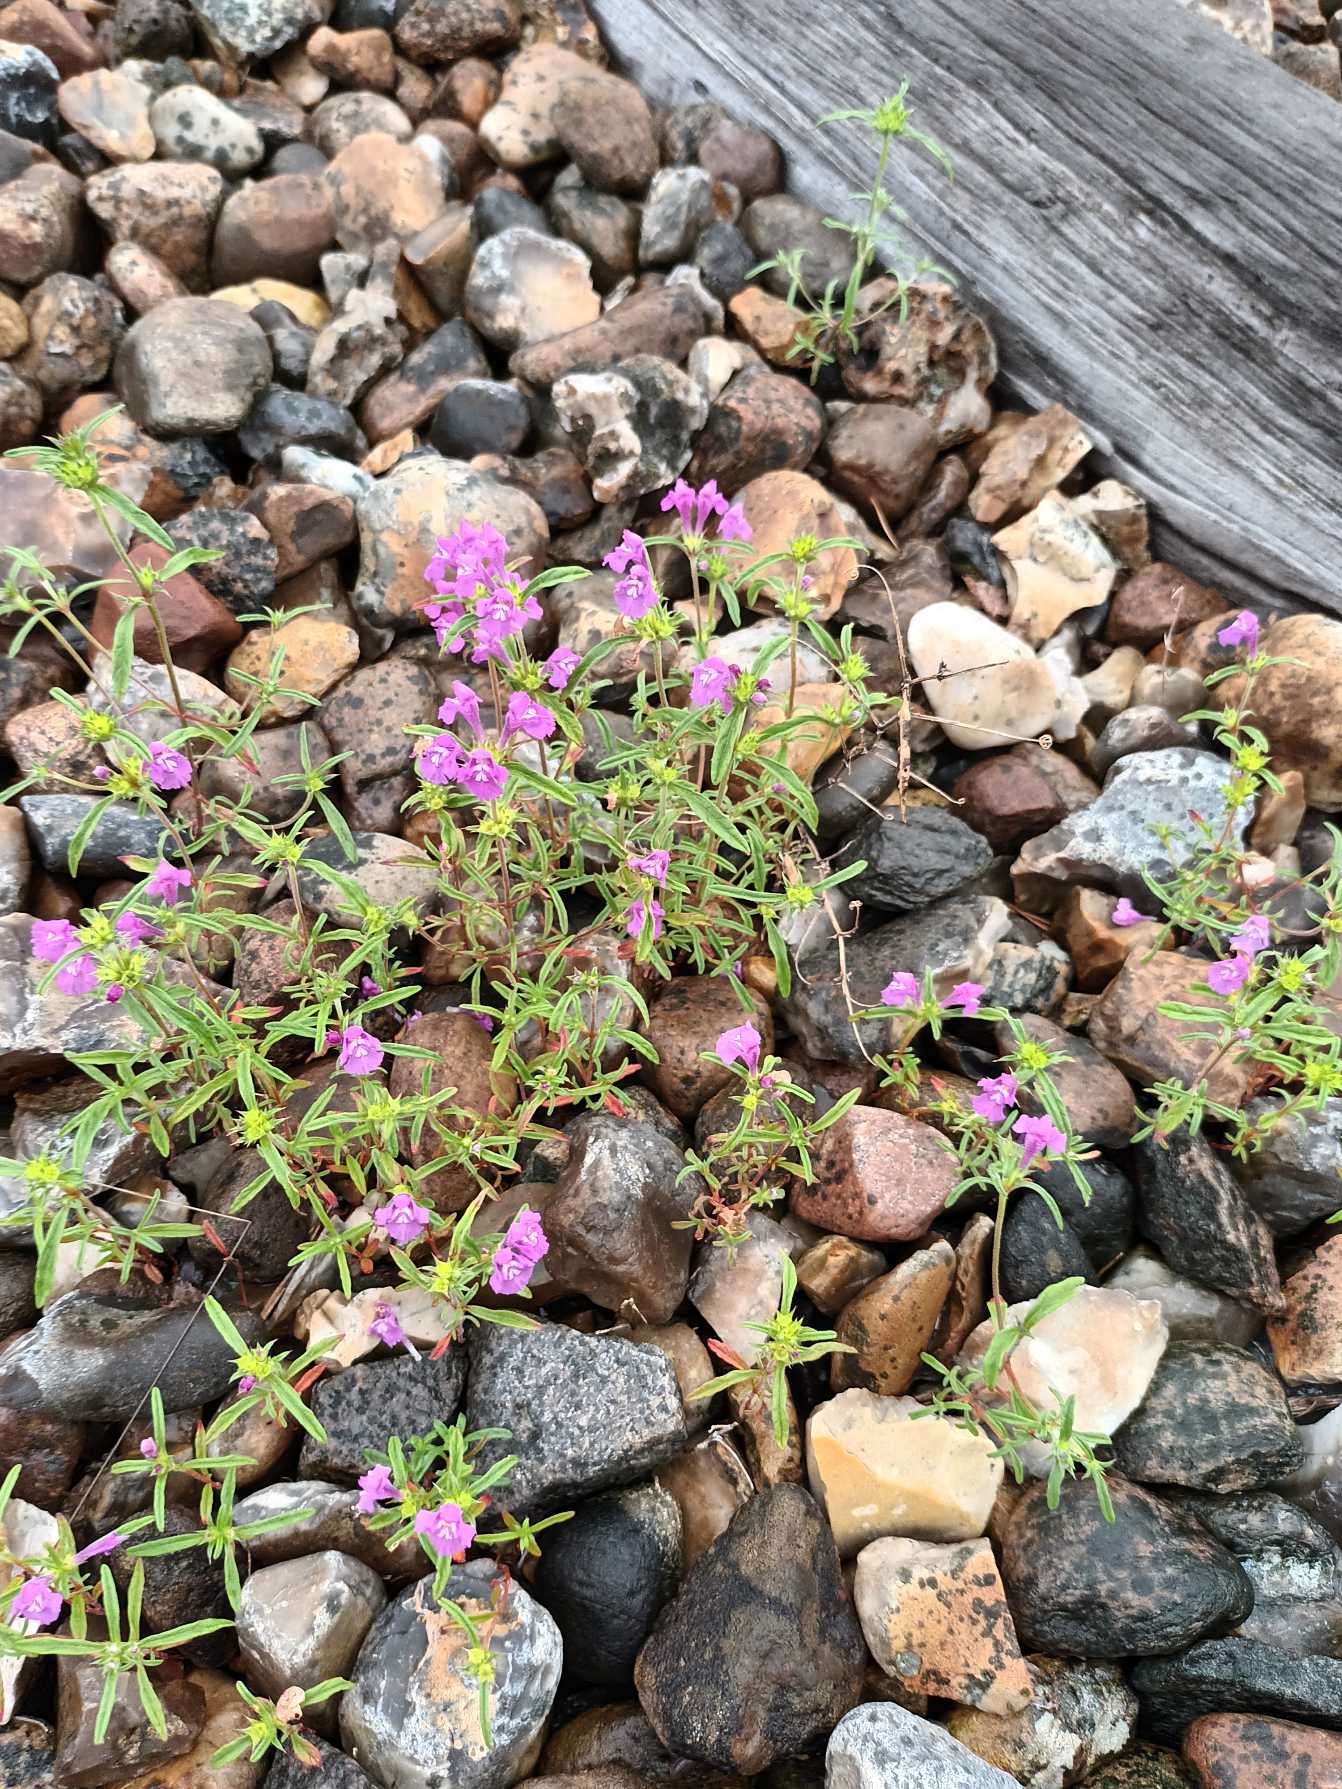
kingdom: Plantae
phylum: Tracheophyta
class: Magnoliopsida
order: Lamiales
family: Lamiaceae
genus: Galeopsis
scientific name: Galeopsis angustifolia
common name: Smalbladet hanekro
